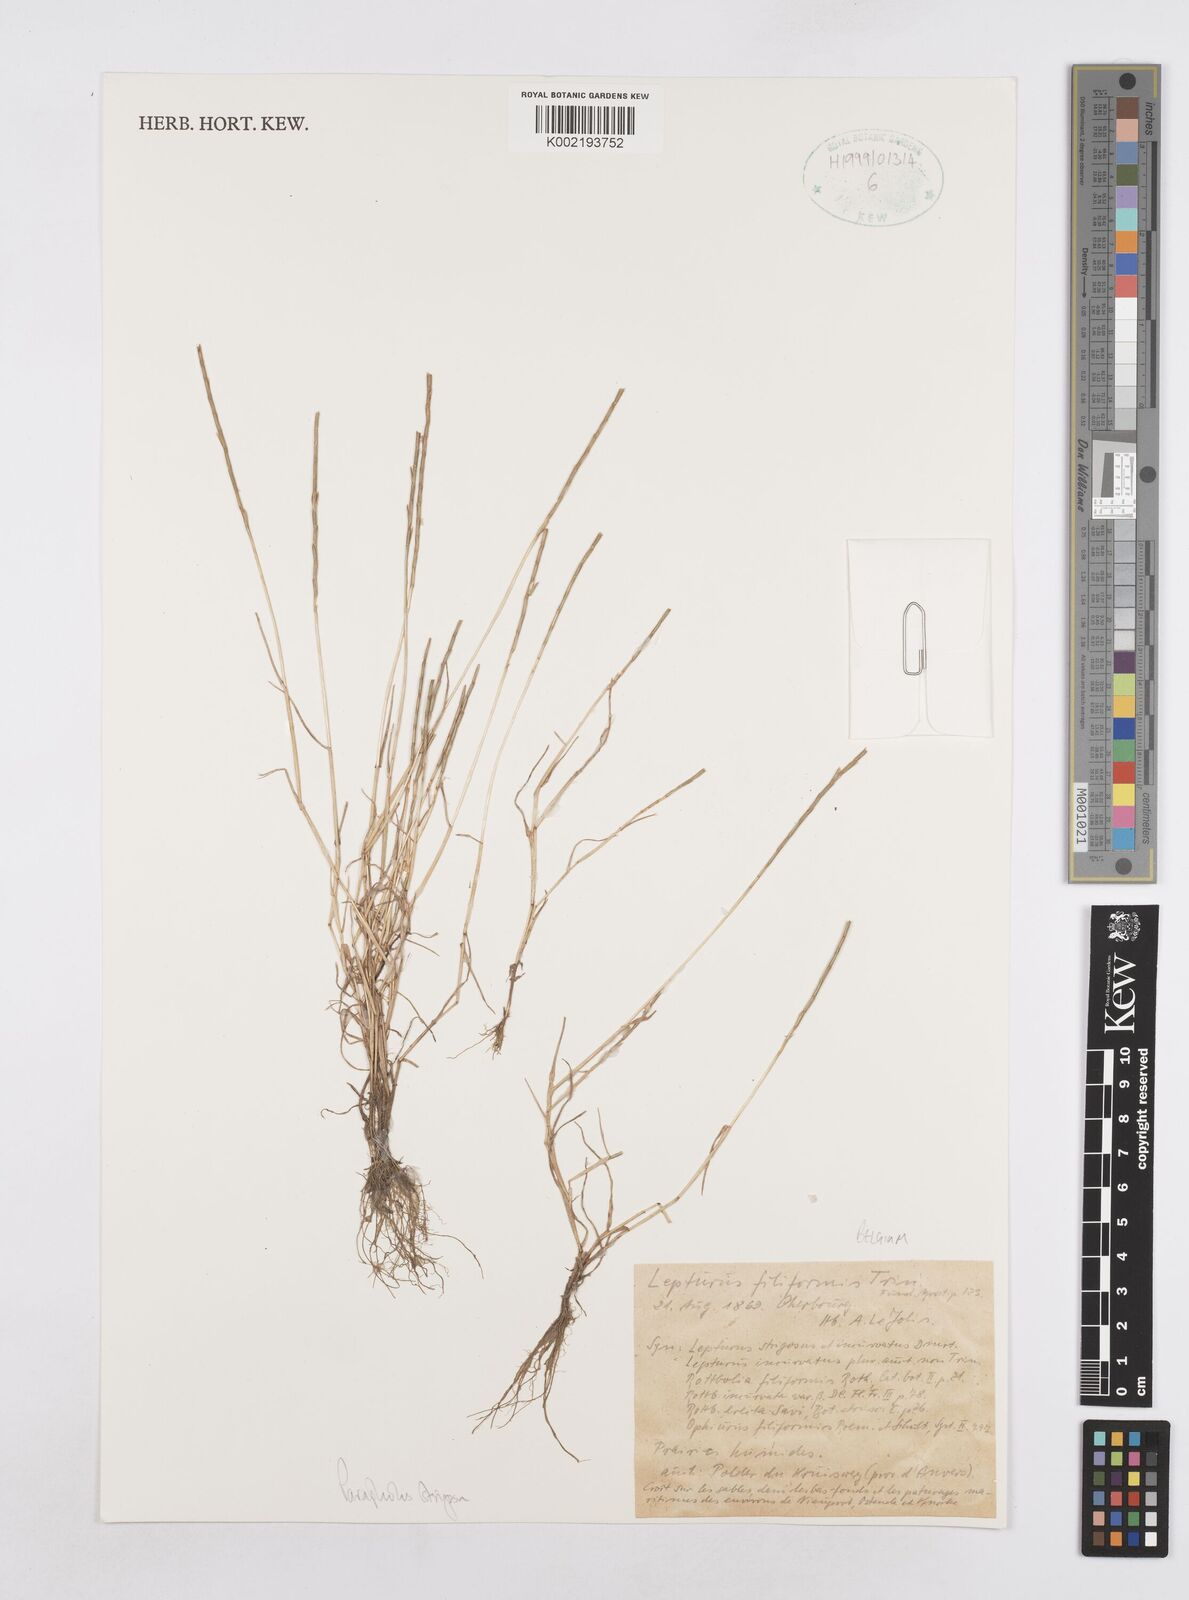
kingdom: Plantae
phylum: Tracheophyta
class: Liliopsida
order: Poales
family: Poaceae
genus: Parapholis
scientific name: Parapholis strigosa
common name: Hard-grass
